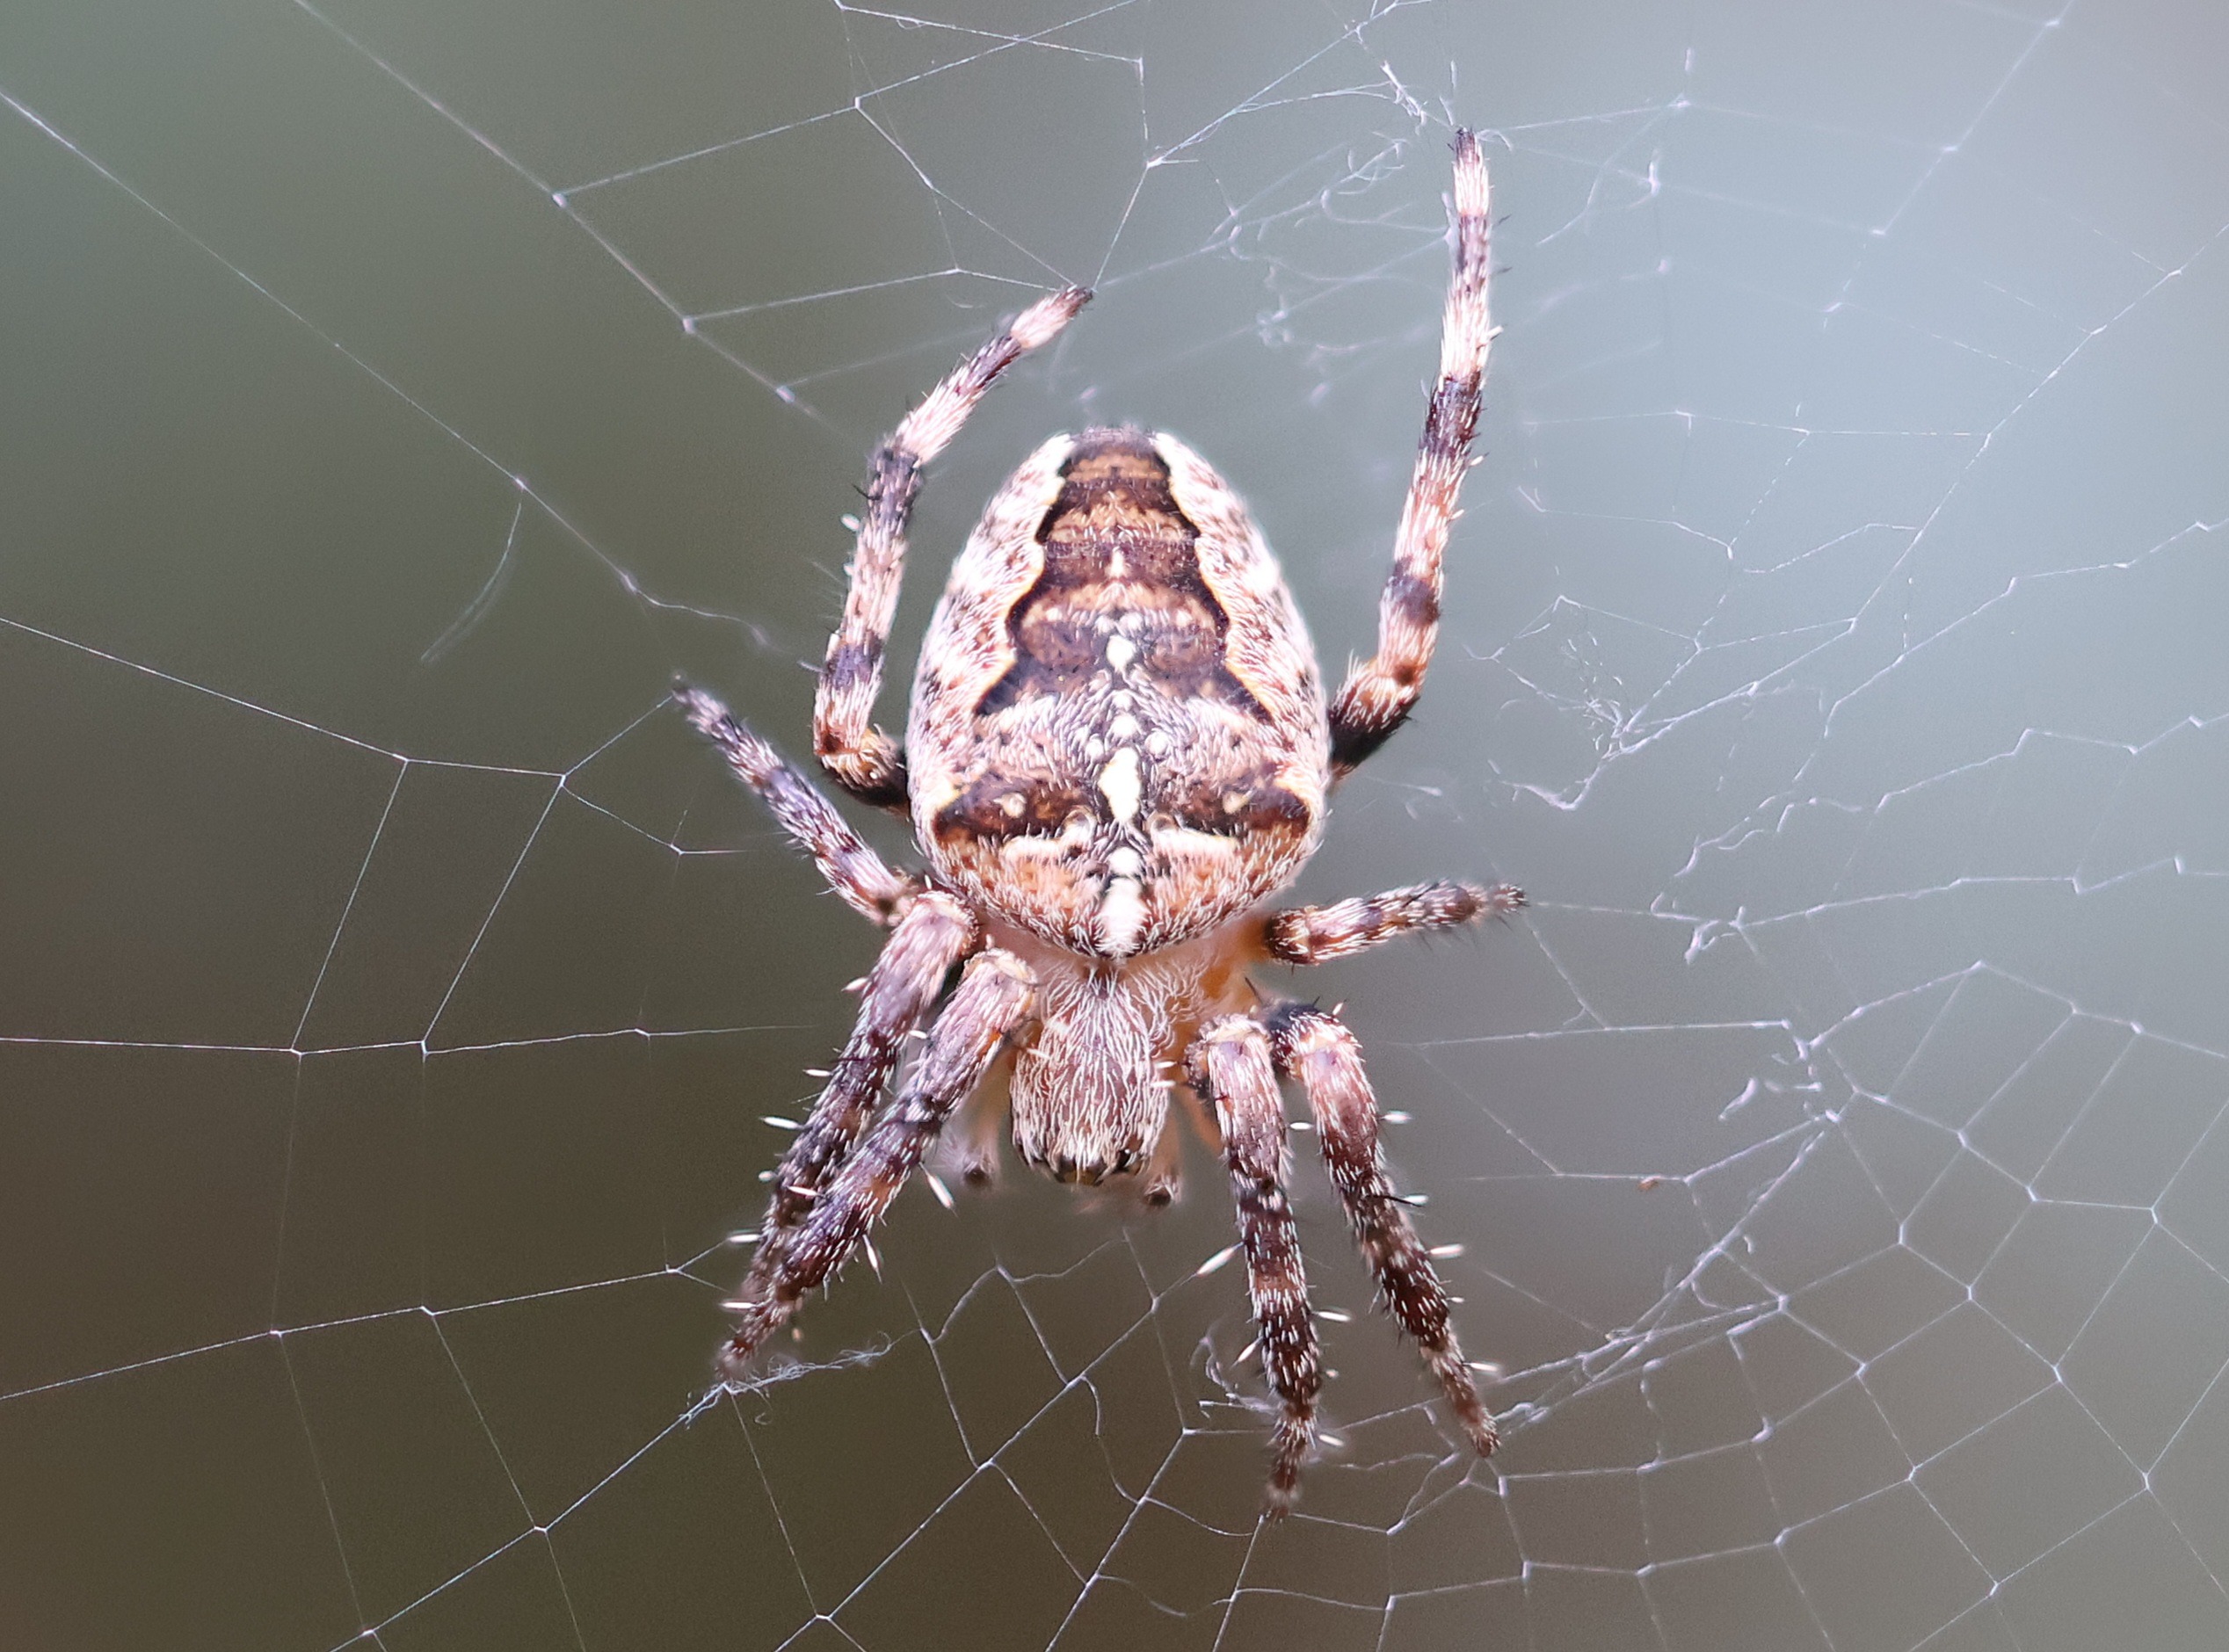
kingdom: Animalia
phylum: Arthropoda
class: Arachnida
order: Araneae
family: Araneidae
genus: Araneus
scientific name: Araneus diadematus
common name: Korsedderkop
